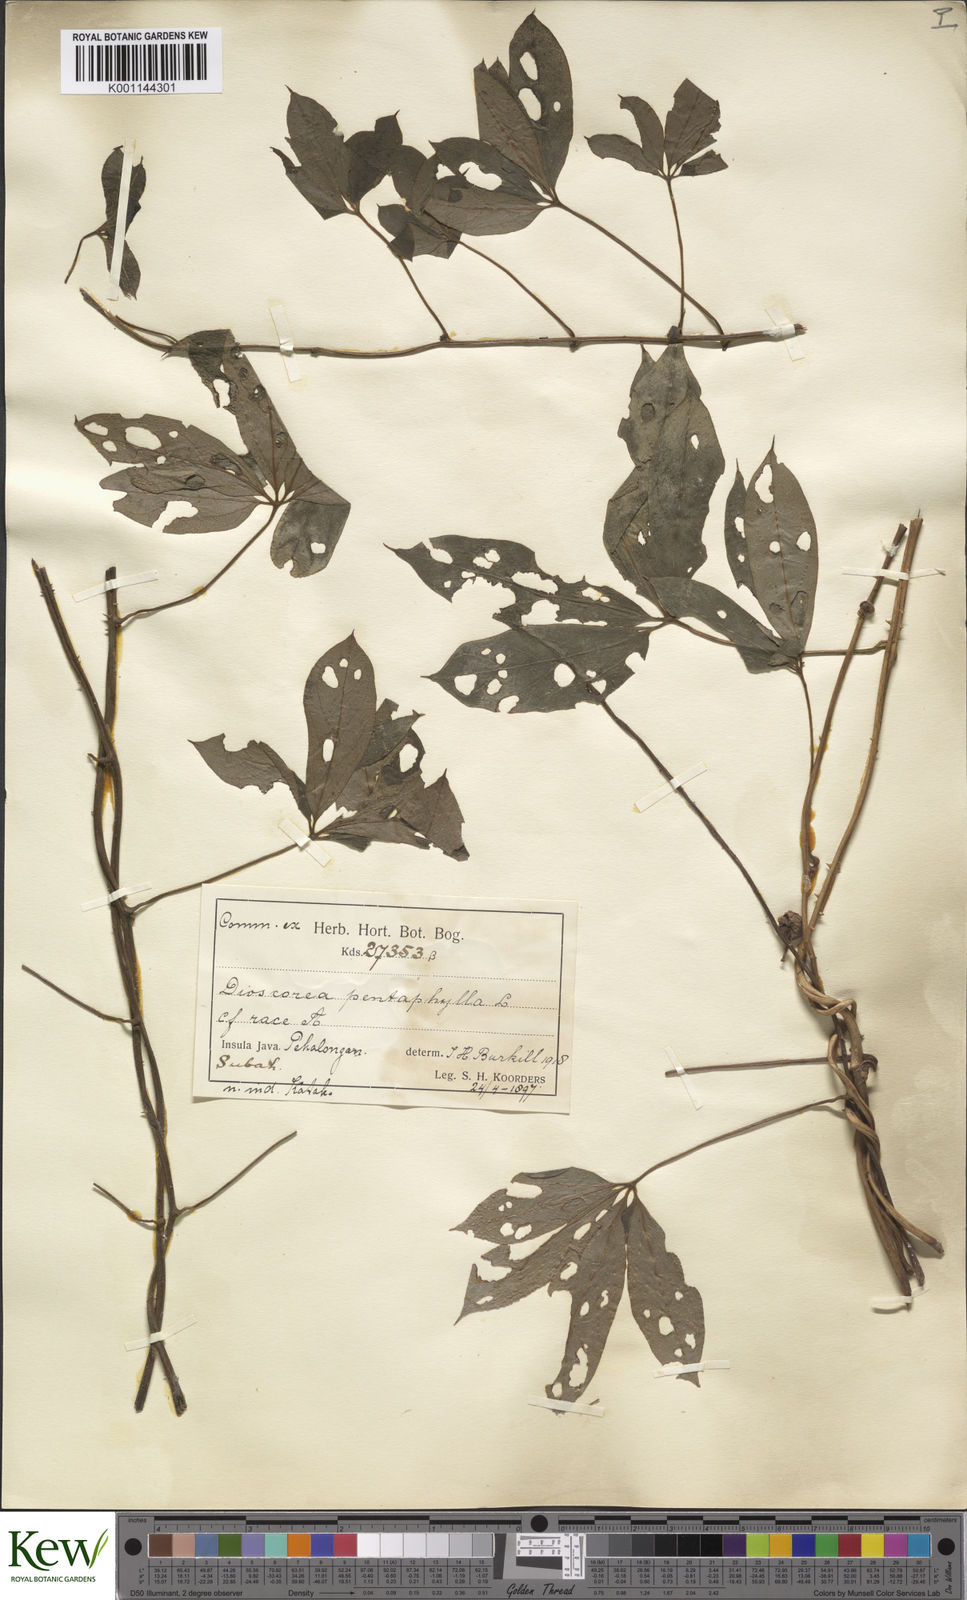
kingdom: Plantae
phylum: Tracheophyta
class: Liliopsida
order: Dioscoreales
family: Dioscoreaceae
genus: Dioscorea
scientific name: Dioscorea pentaphylla
